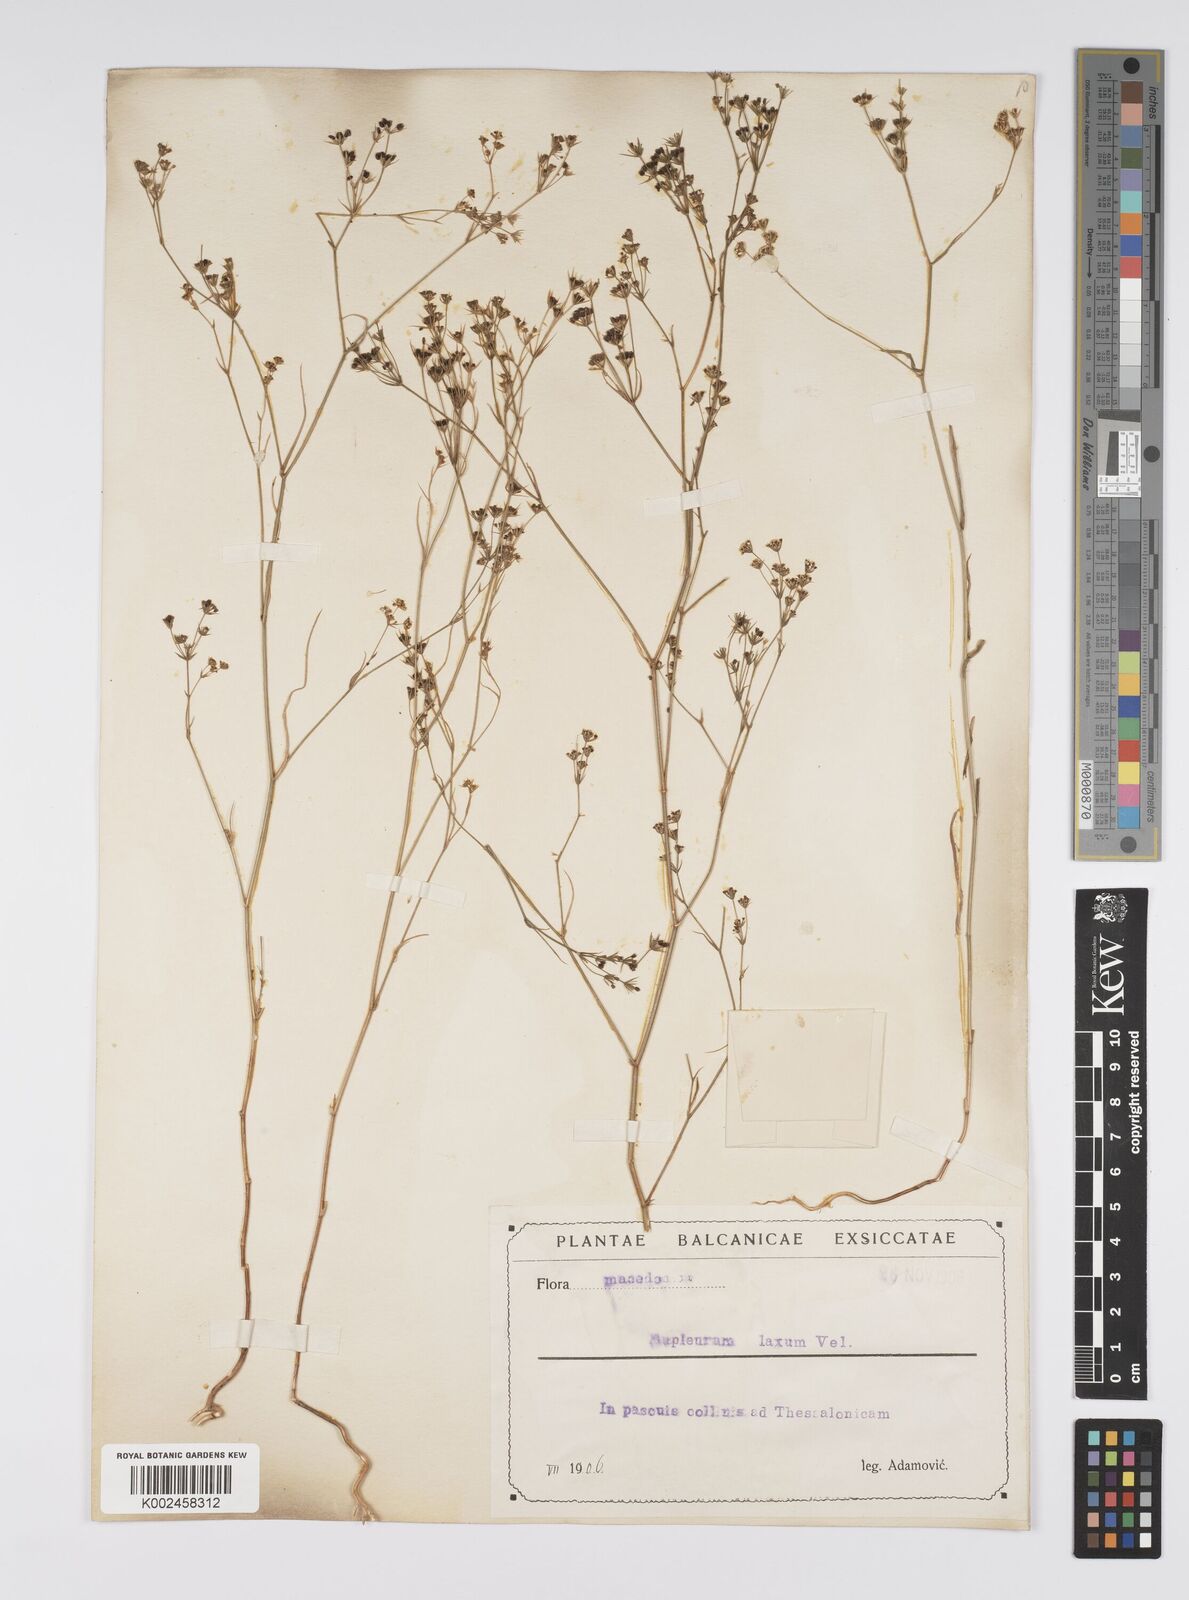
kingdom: Plantae
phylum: Tracheophyta
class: Magnoliopsida
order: Apiales
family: Apiaceae
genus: Bupleurum
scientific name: Bupleurum commutatum
